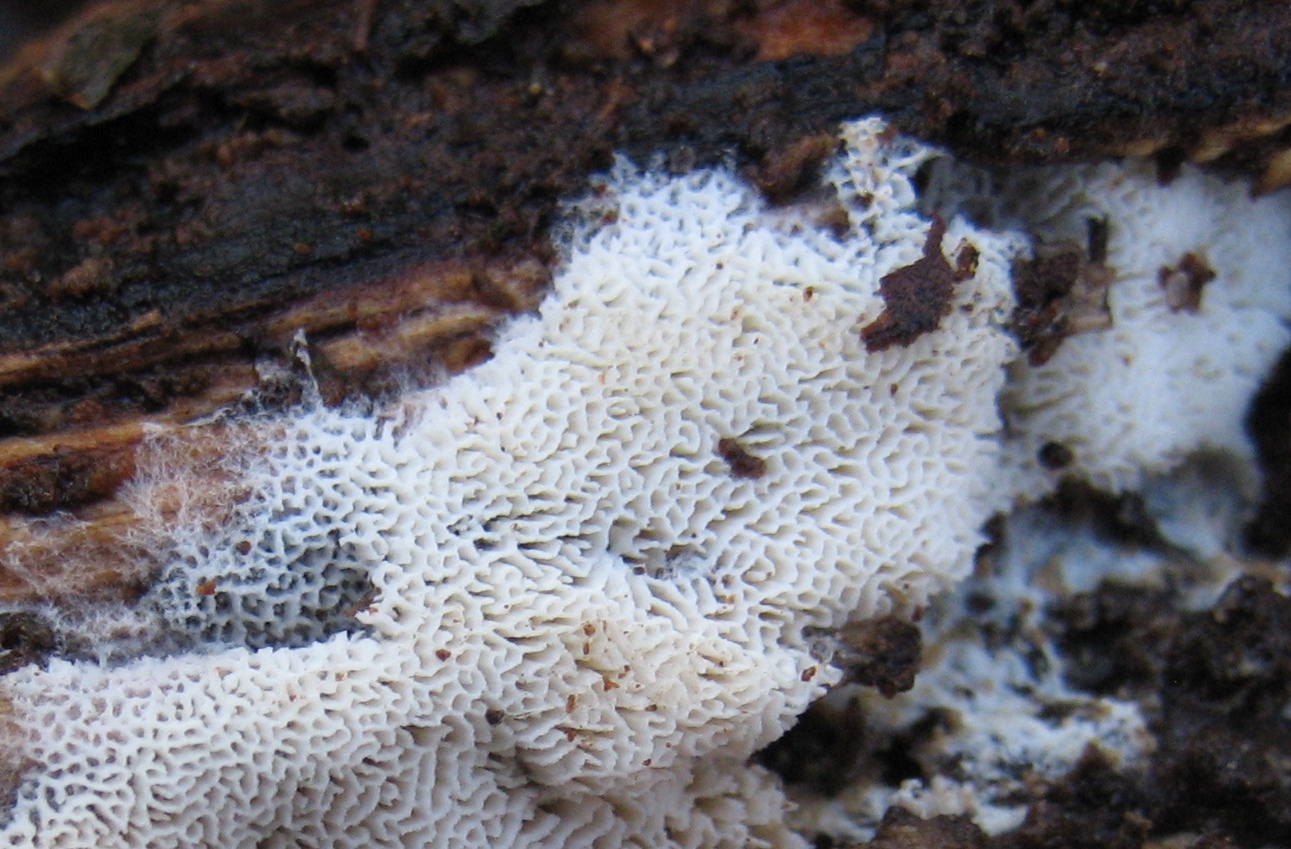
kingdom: Fungi
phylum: Basidiomycota
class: Agaricomycetes
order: Polyporales
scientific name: Polyporales
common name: poresvampordenen
